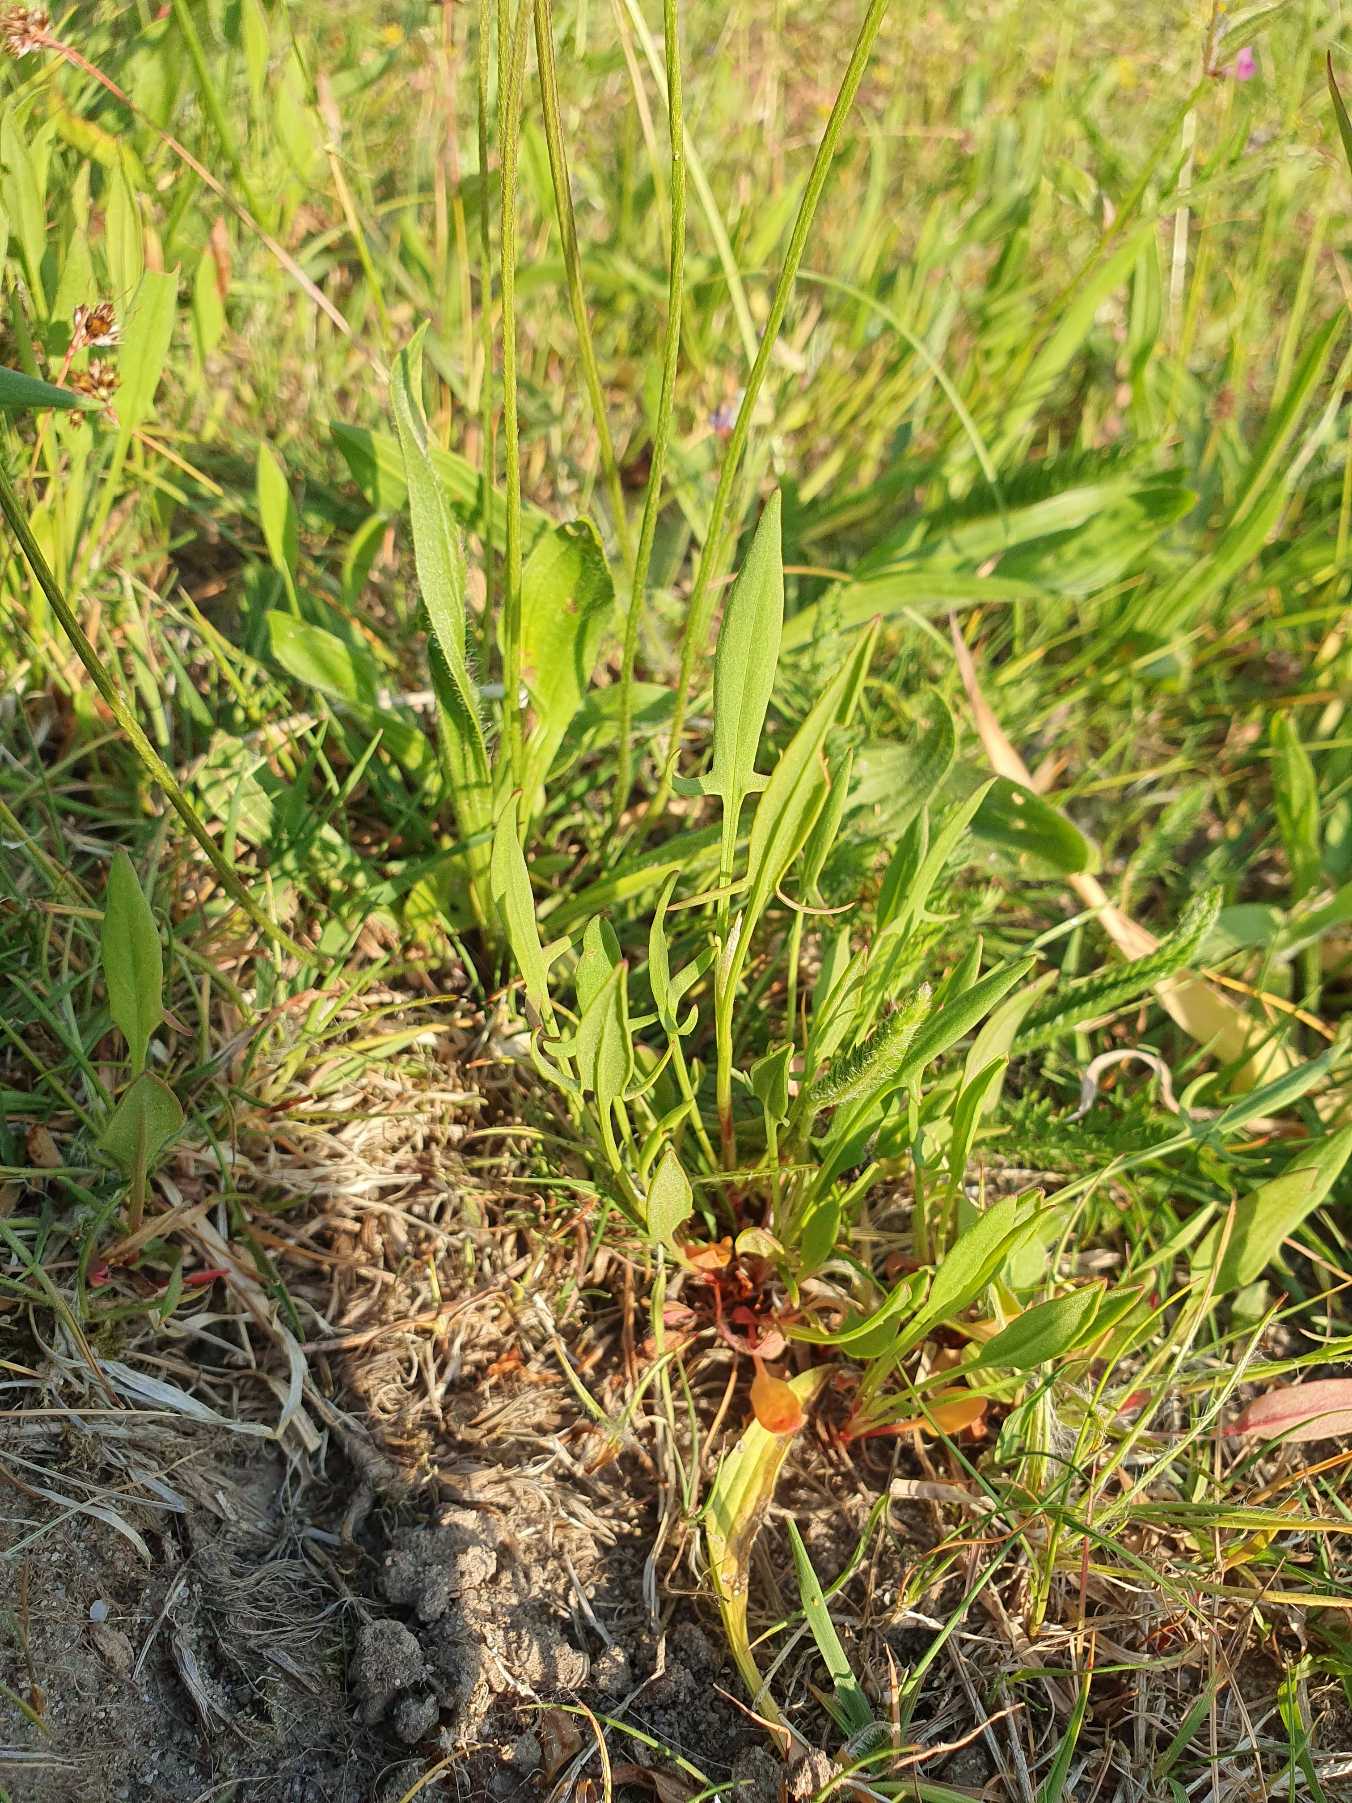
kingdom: Plantae
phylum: Tracheophyta
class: Magnoliopsida
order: Caryophyllales
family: Polygonaceae
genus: Rumex
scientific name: Rumex acetosella
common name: Rødknæ
